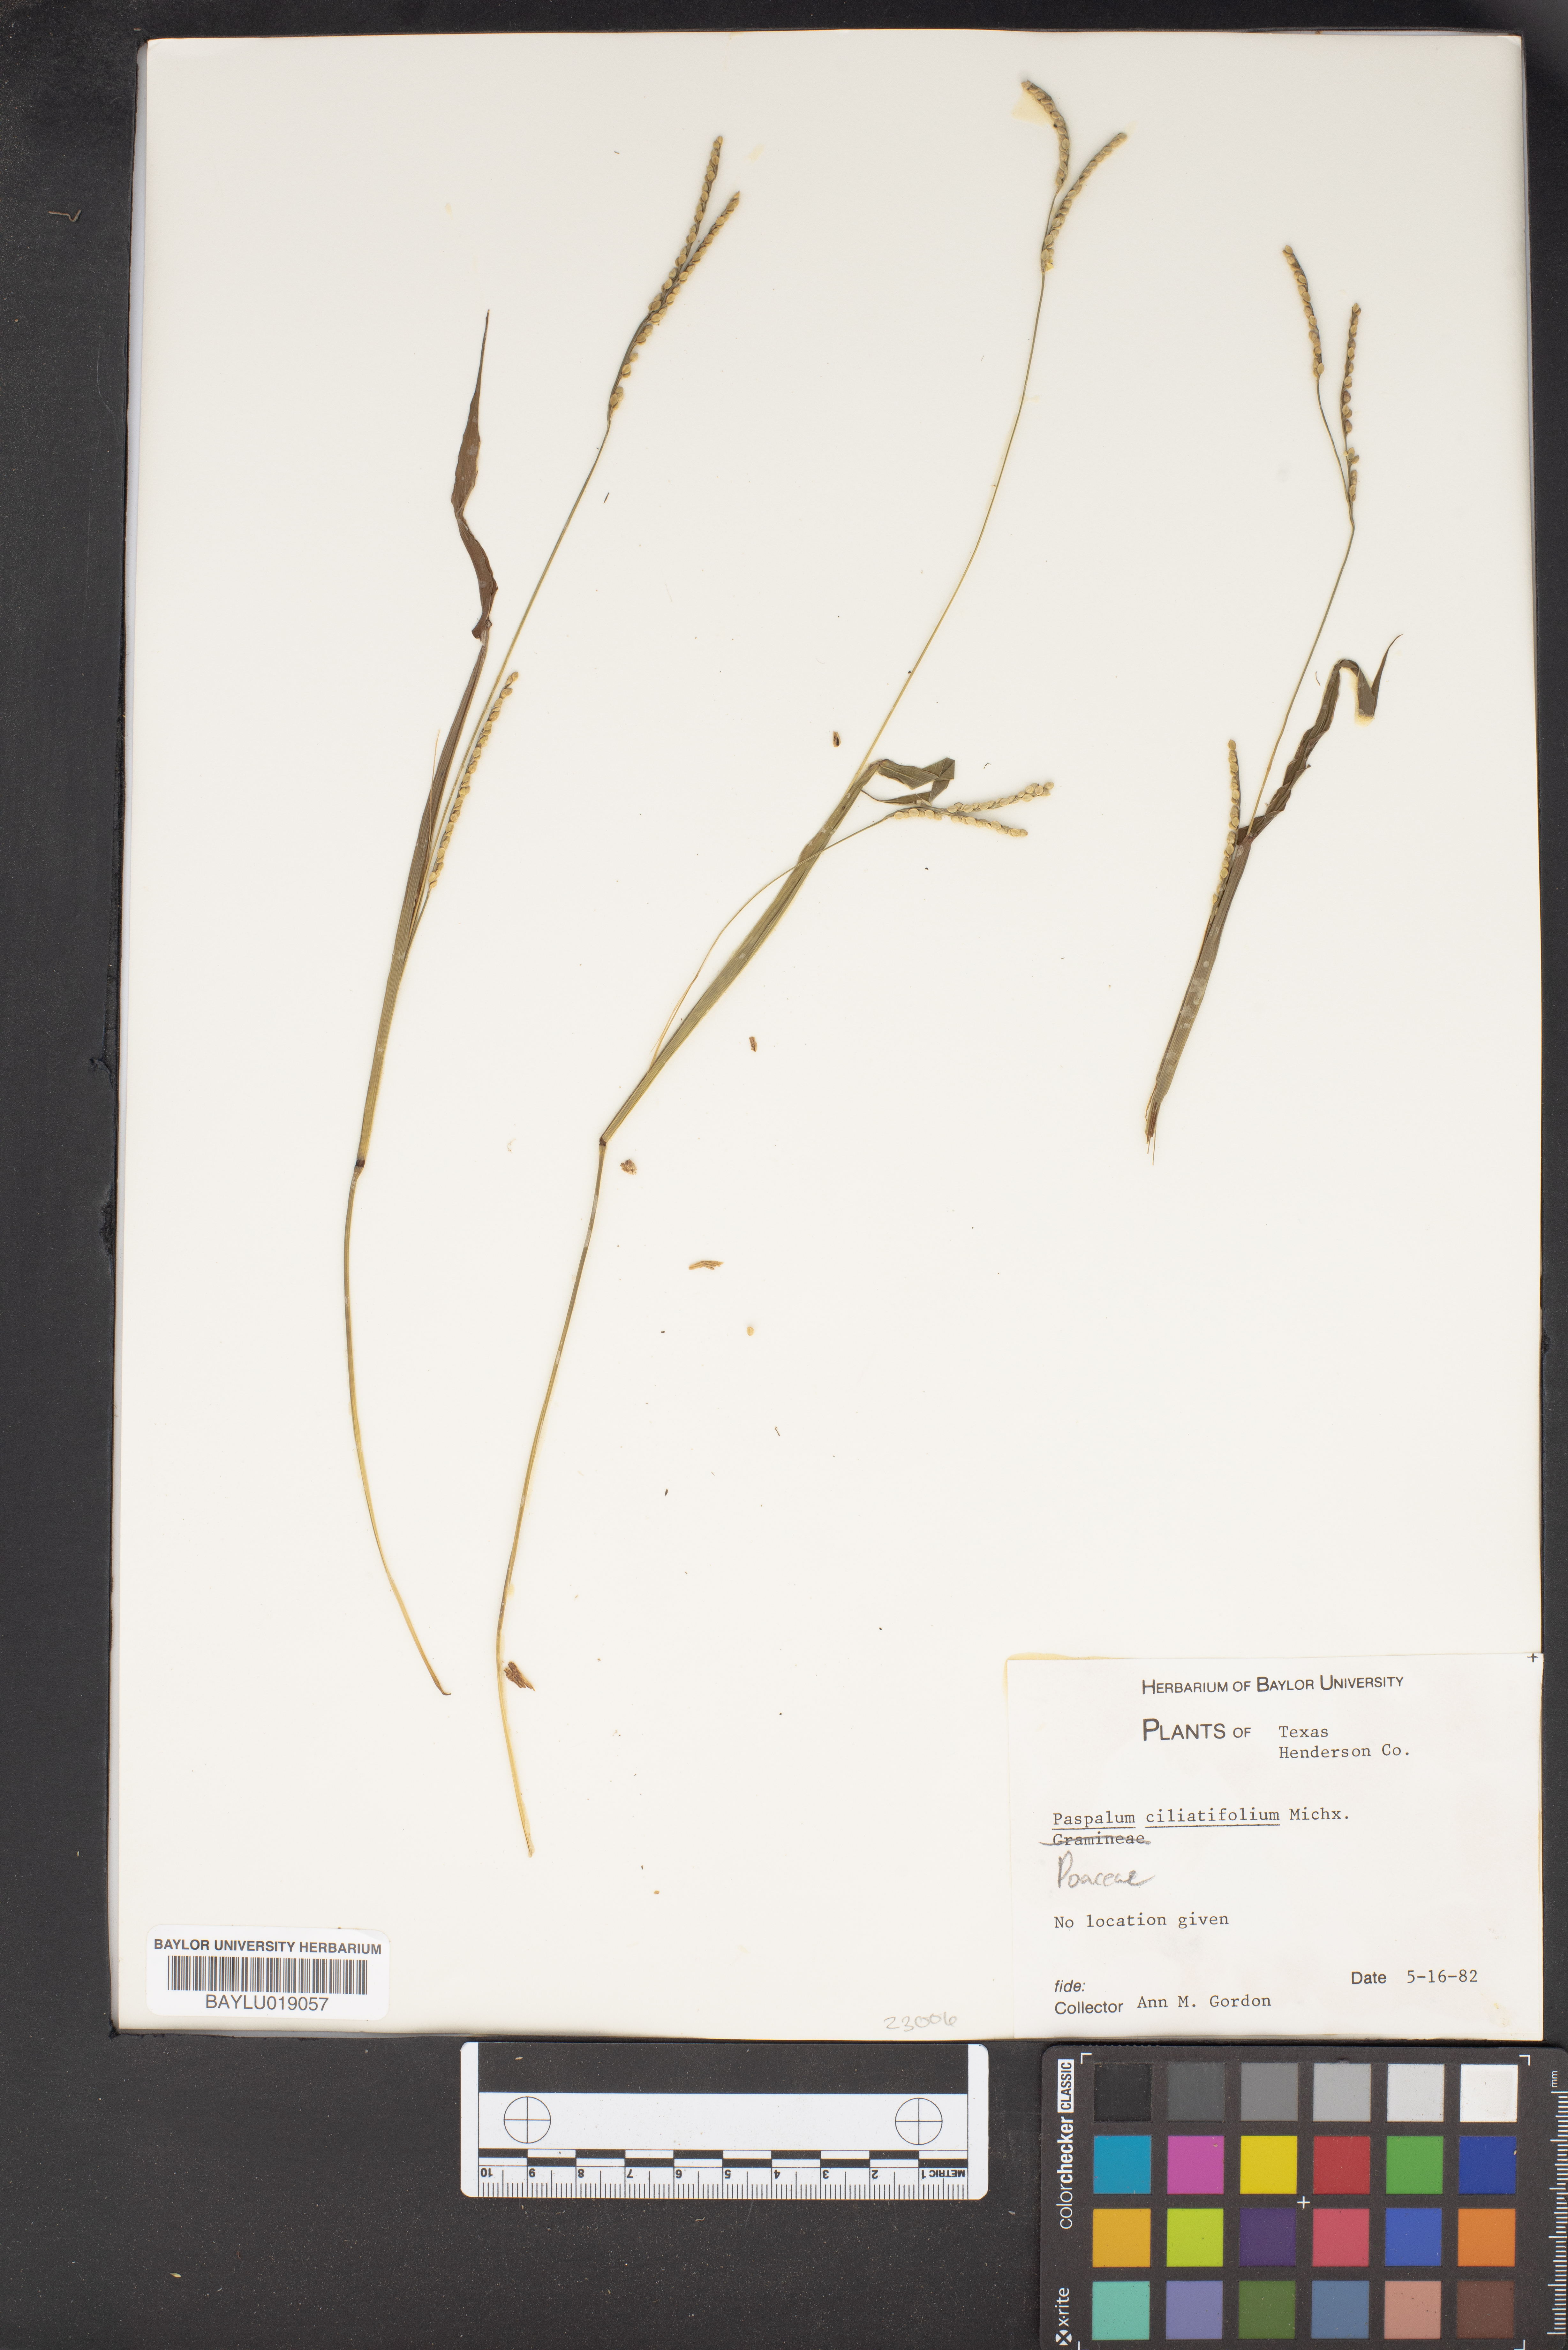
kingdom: Plantae
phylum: Tracheophyta
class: Liliopsida
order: Poales
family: Poaceae
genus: Paspalum
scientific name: Paspalum setaceum
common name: Slender paspalum
